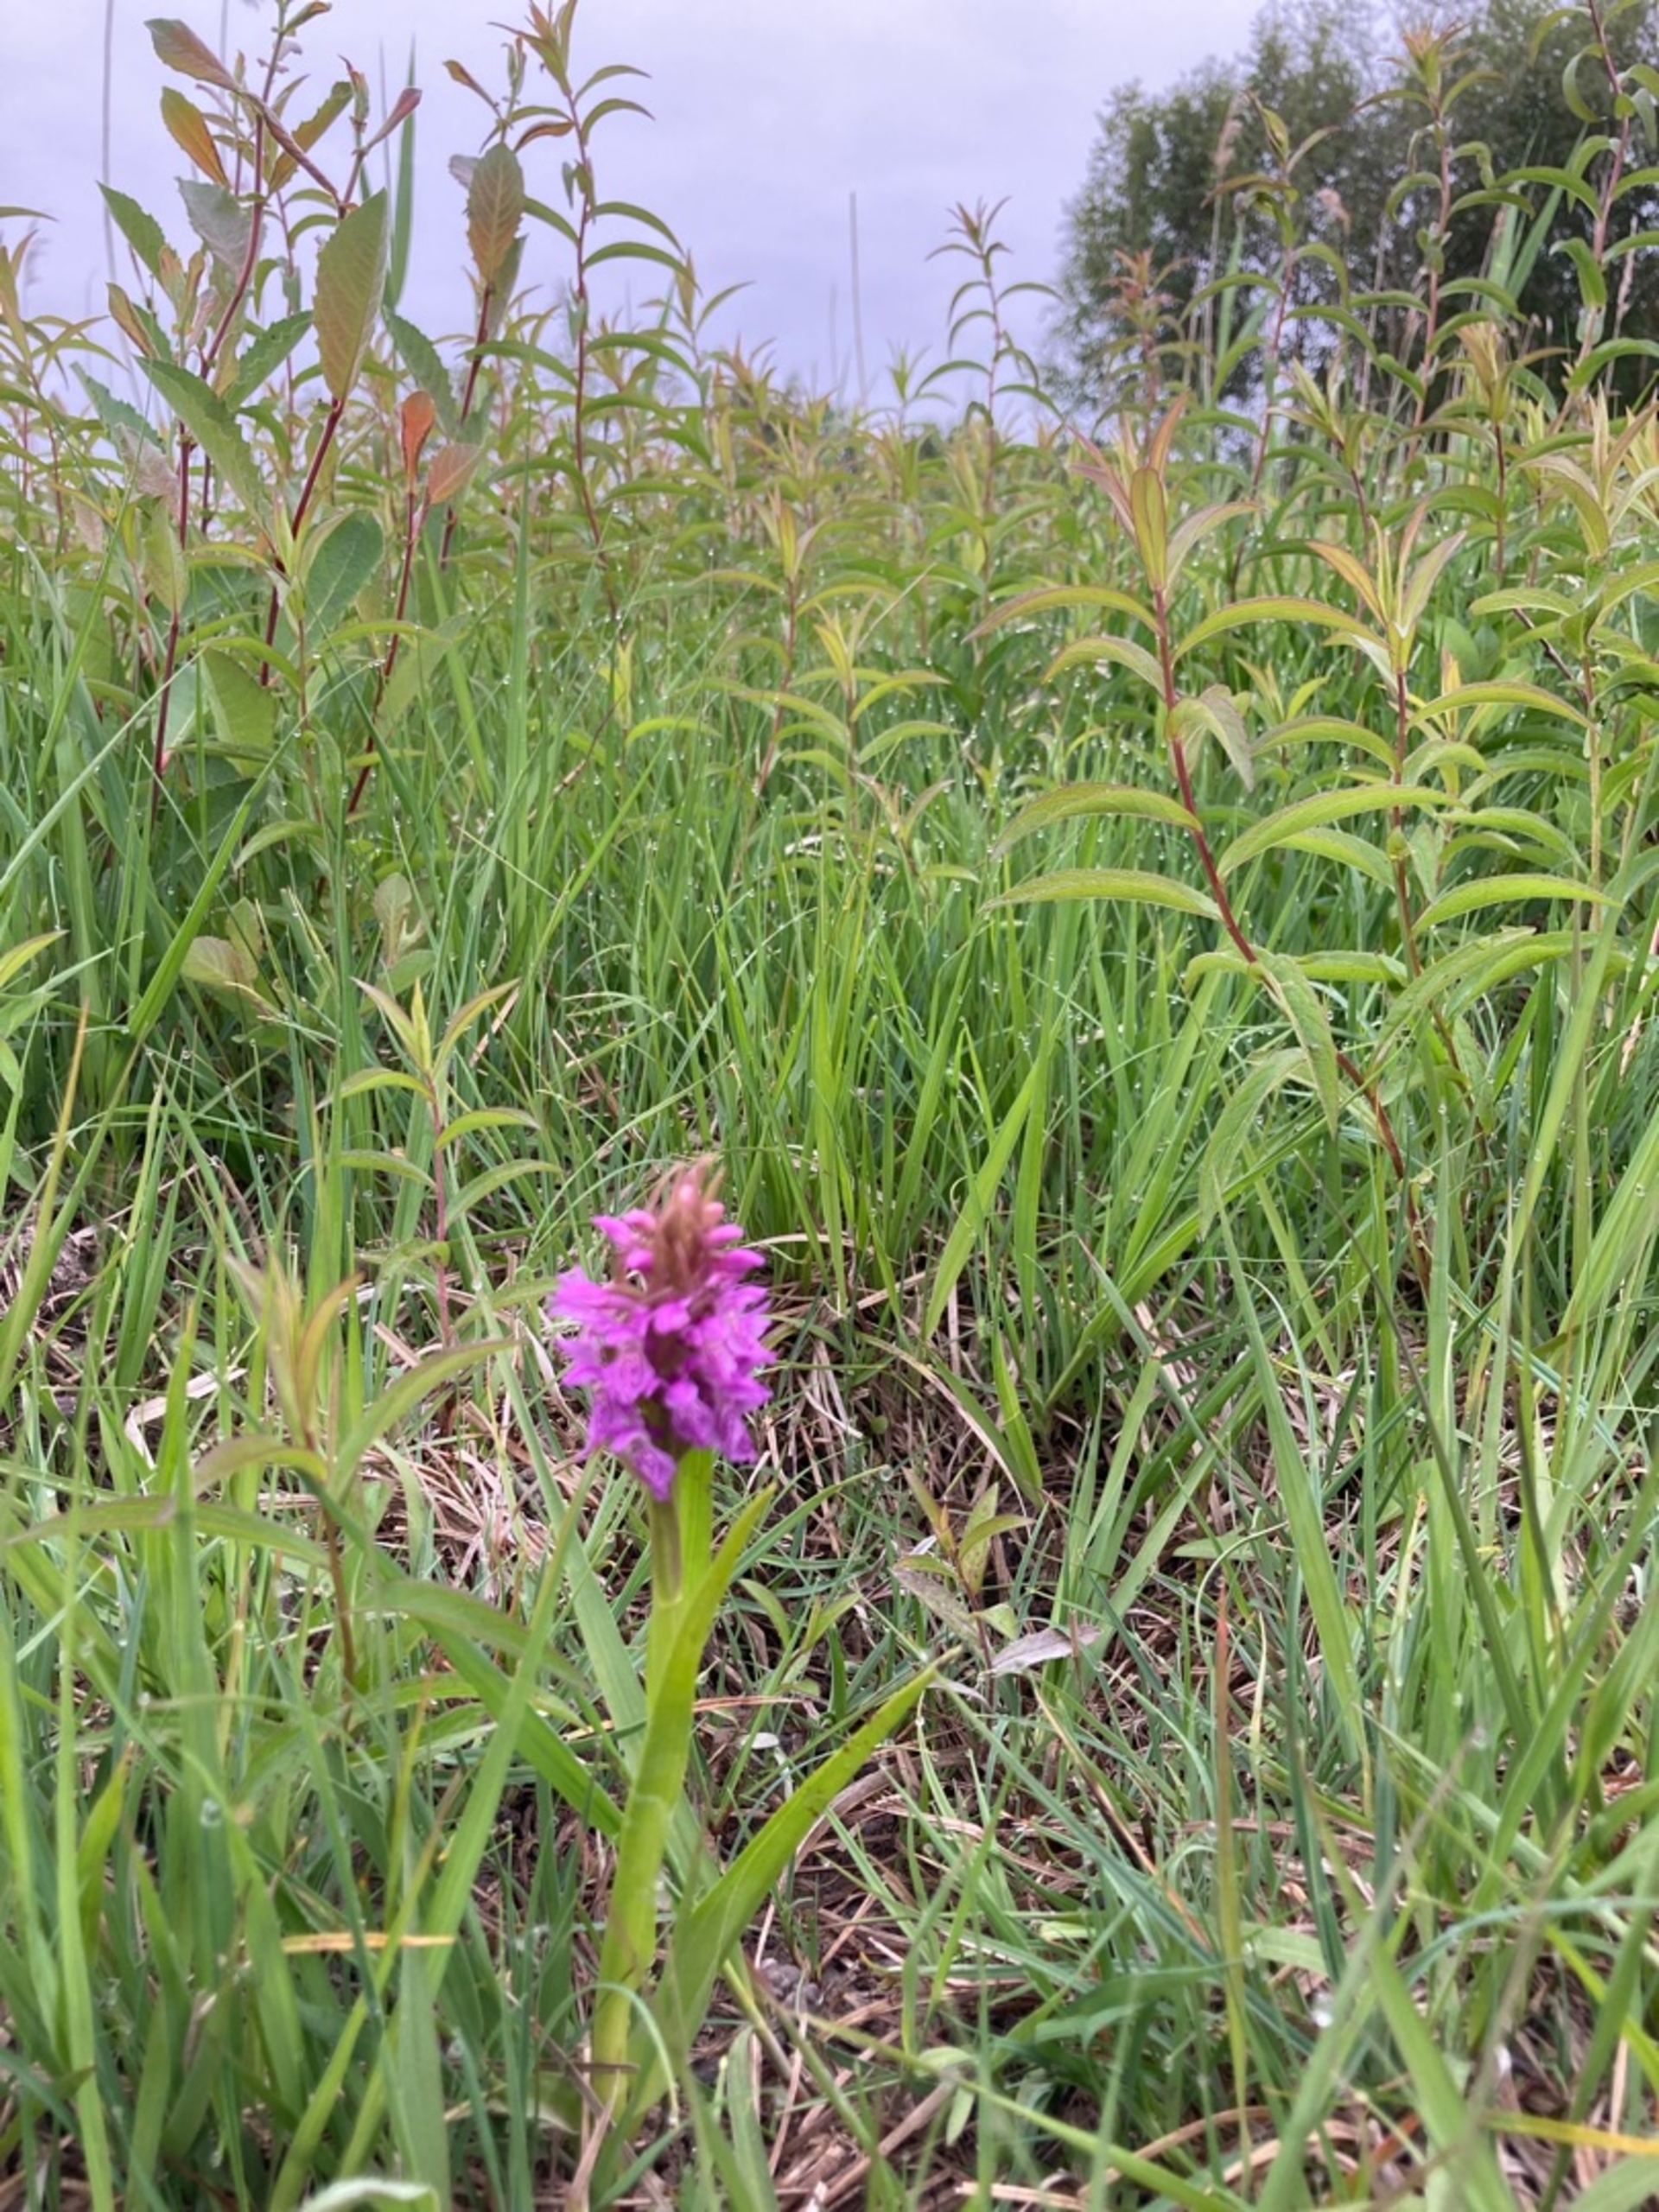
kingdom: Plantae
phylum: Tracheophyta
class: Liliopsida
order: Asparagales
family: Orchidaceae
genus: Dactylorhiza
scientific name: Dactylorhiza incarnata
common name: Kødfarvet gøgeurt (varietet)
